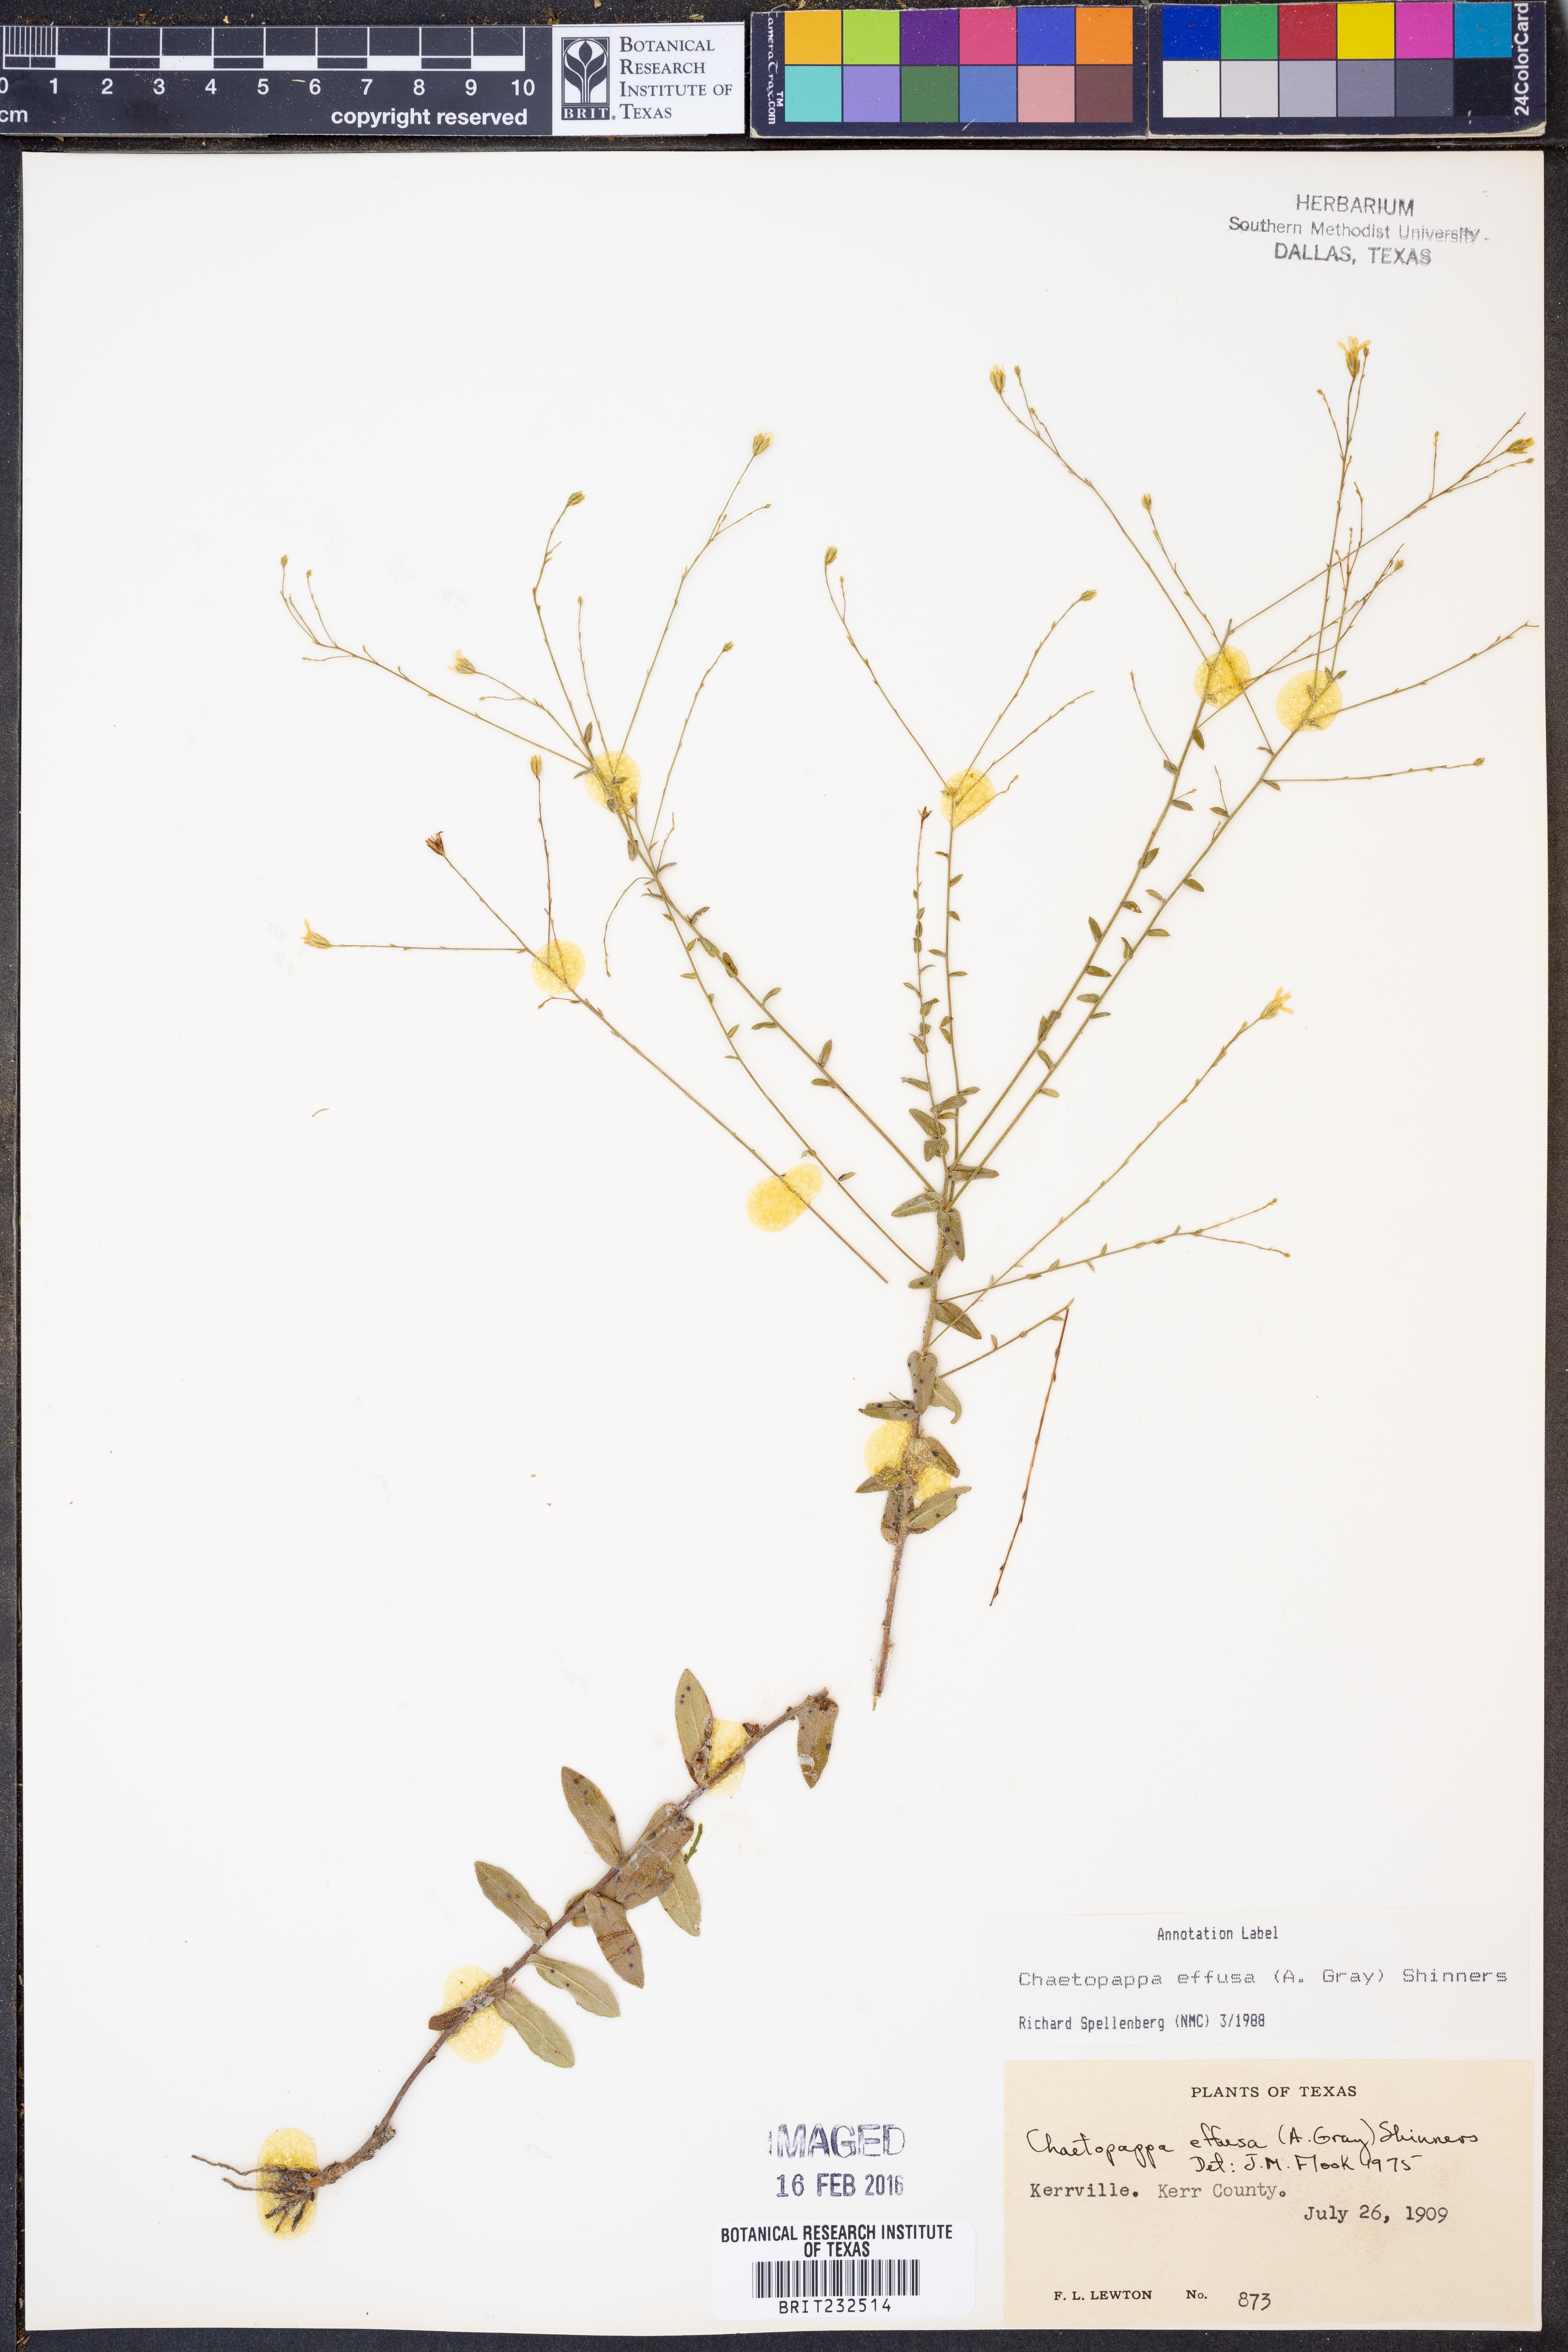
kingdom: Plantae
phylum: Tracheophyta
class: Magnoliopsida
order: Asterales
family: Asteraceae
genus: Chaetopappa
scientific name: Chaetopappa effusa
